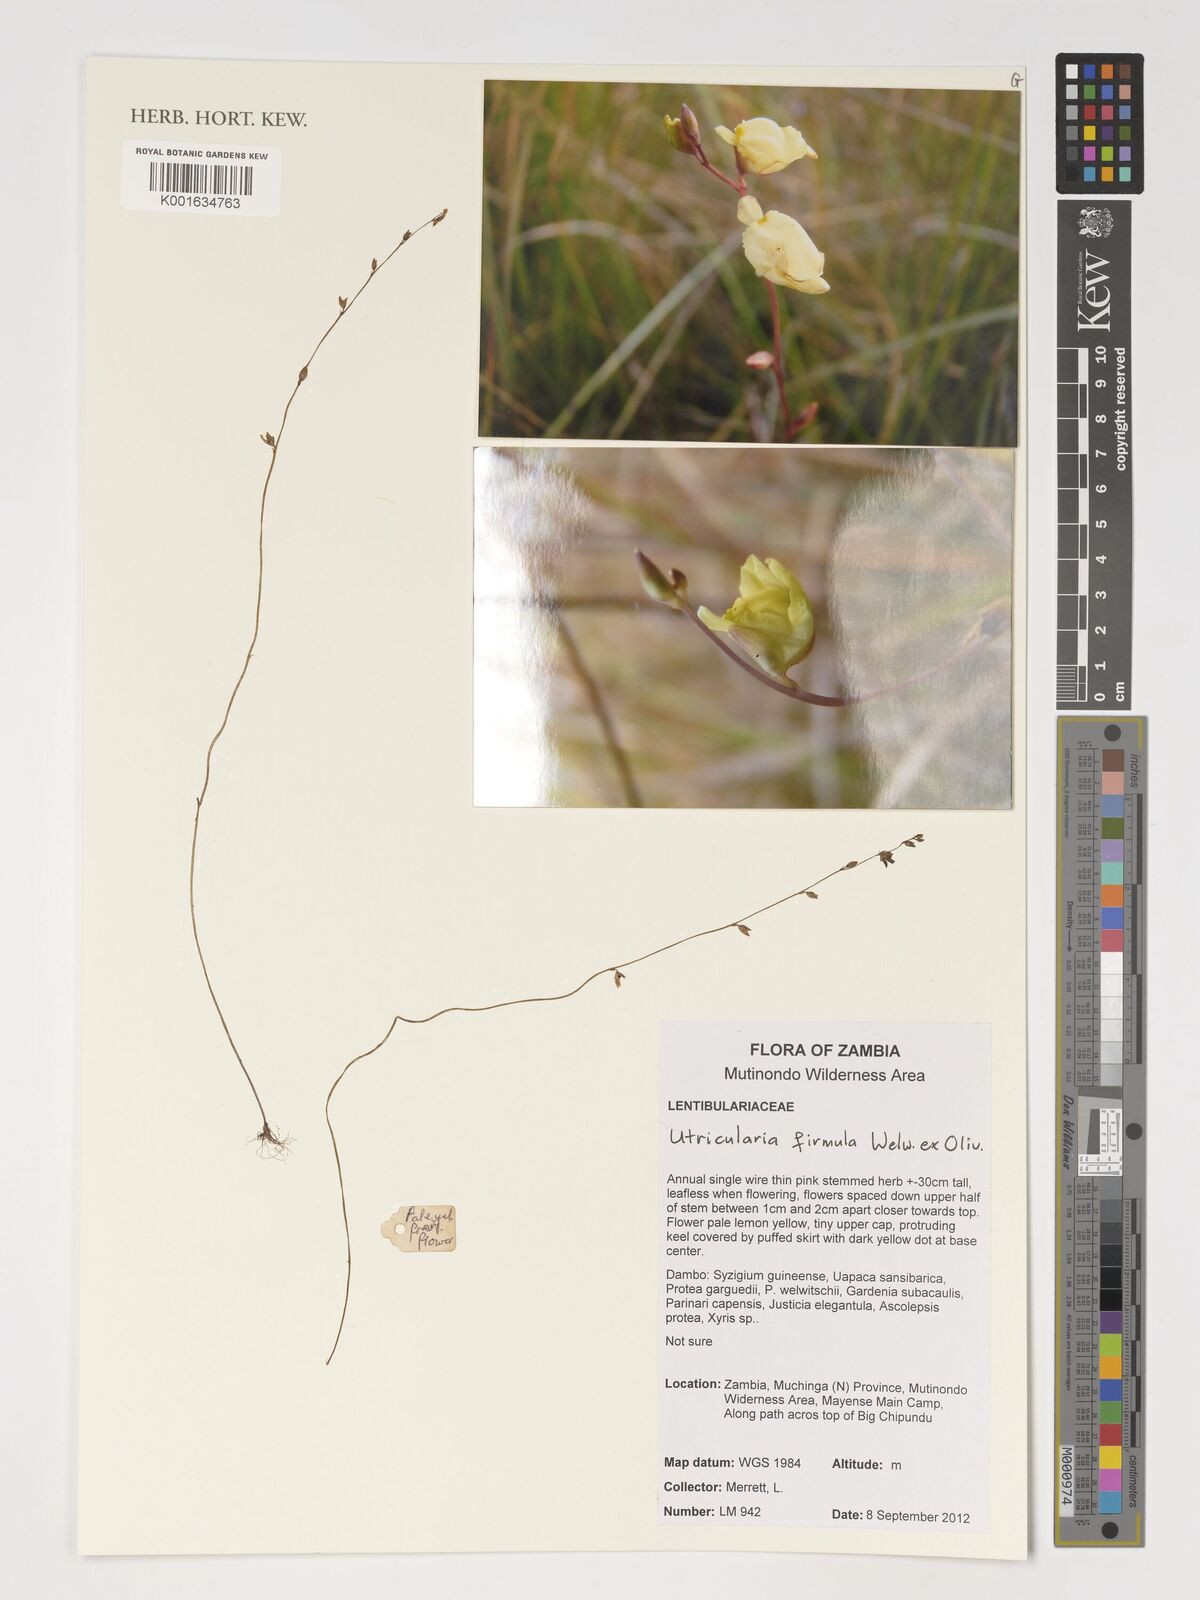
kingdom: Plantae
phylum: Tracheophyta
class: Magnoliopsida
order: Lamiales
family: Lentibulariaceae
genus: Utricularia
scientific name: Utricularia livida
